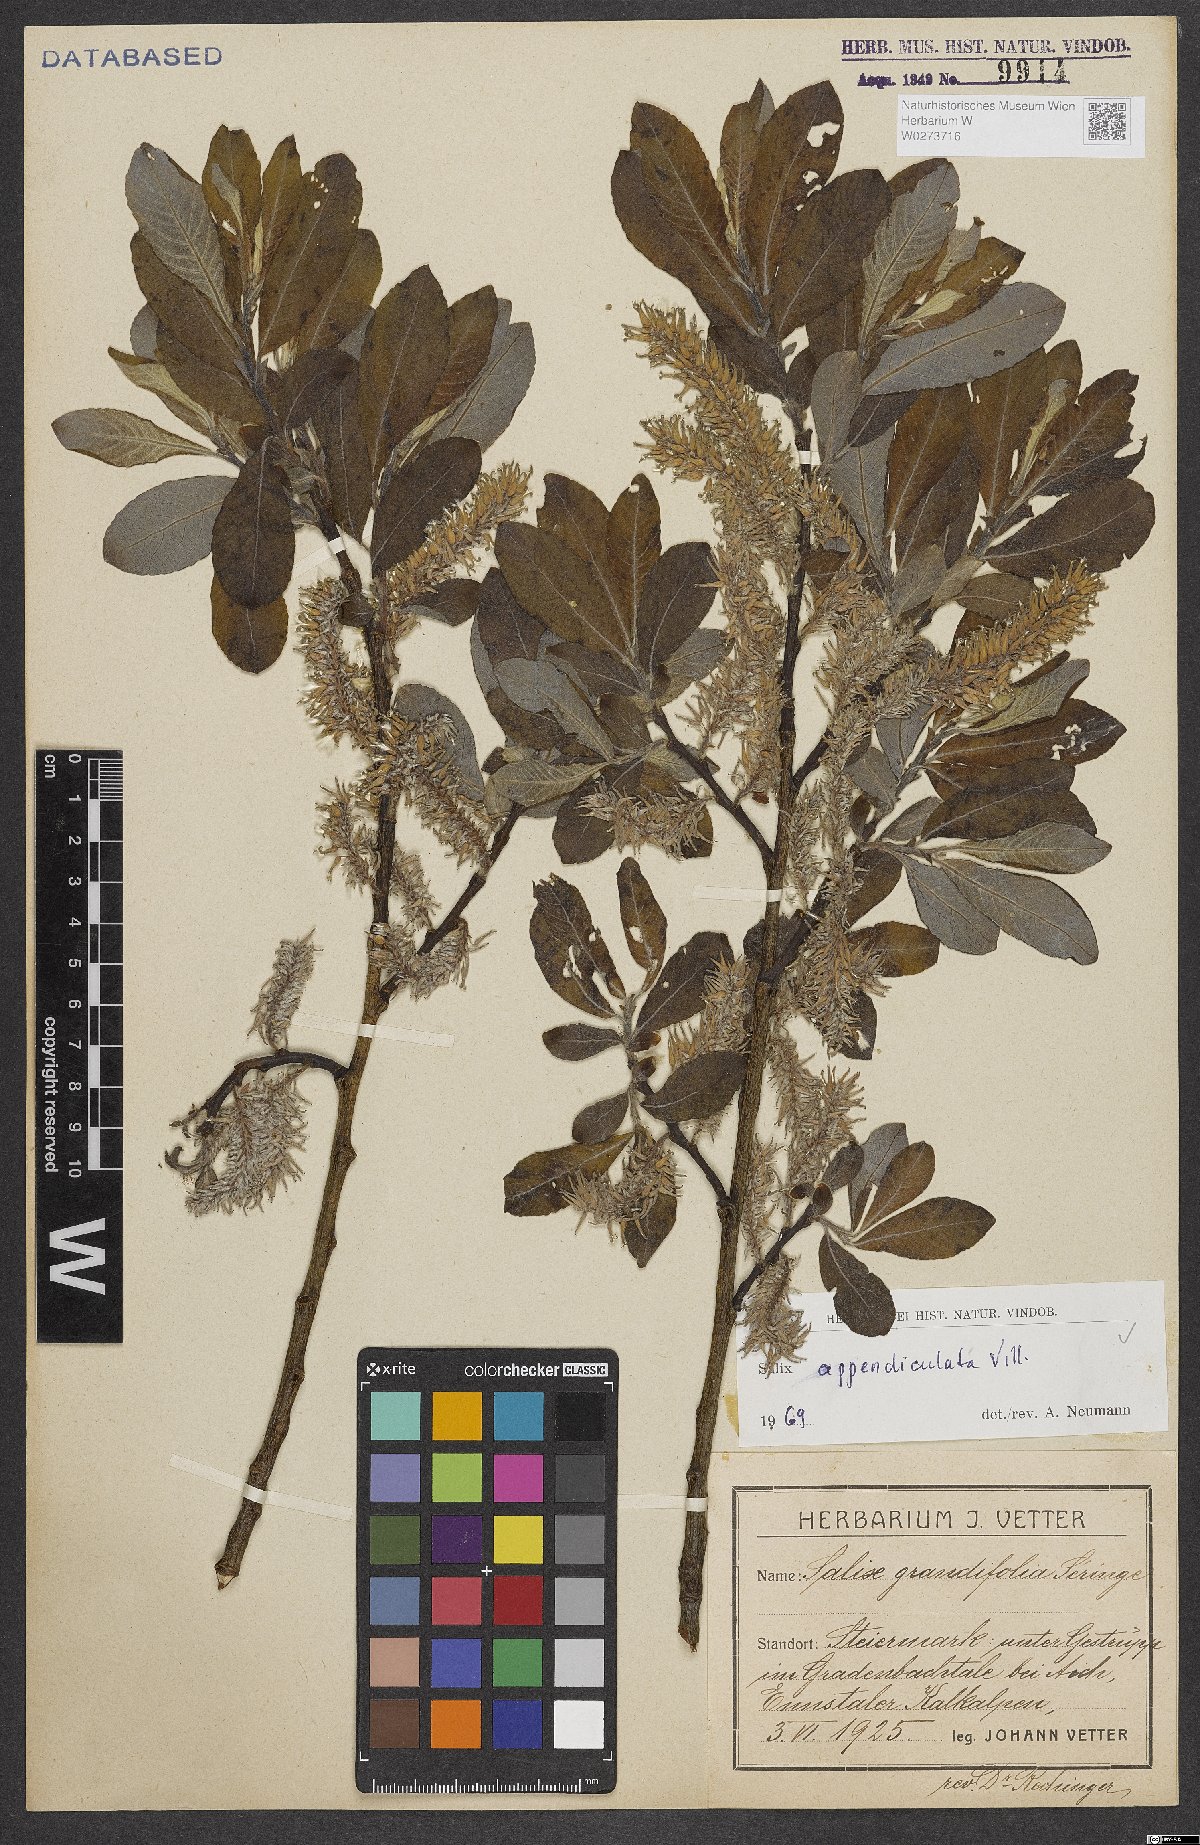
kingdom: Plantae
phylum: Tracheophyta
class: Magnoliopsida
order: Malpighiales
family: Salicaceae
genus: Salix
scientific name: Salix appendiculata
